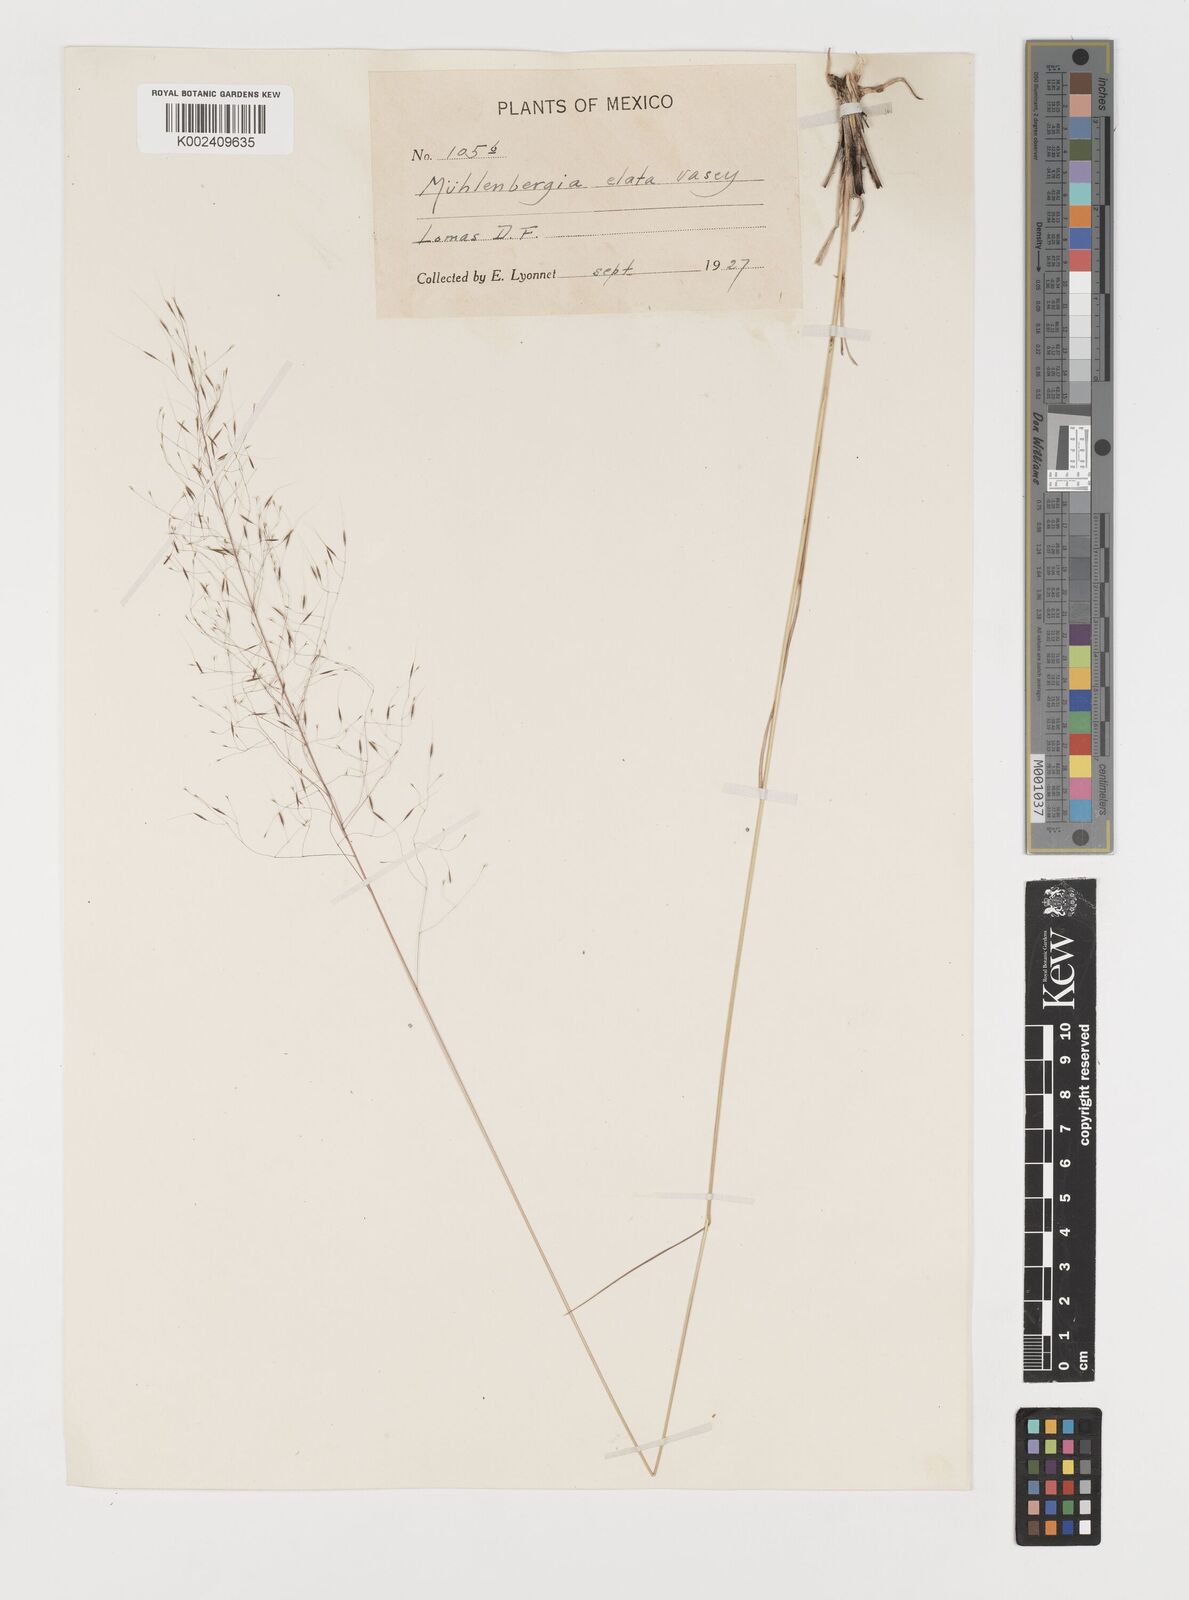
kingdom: Plantae
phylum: Tracheophyta
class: Liliopsida
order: Poales
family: Poaceae
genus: Muhlenbergia
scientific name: Muhlenbergia stricta
